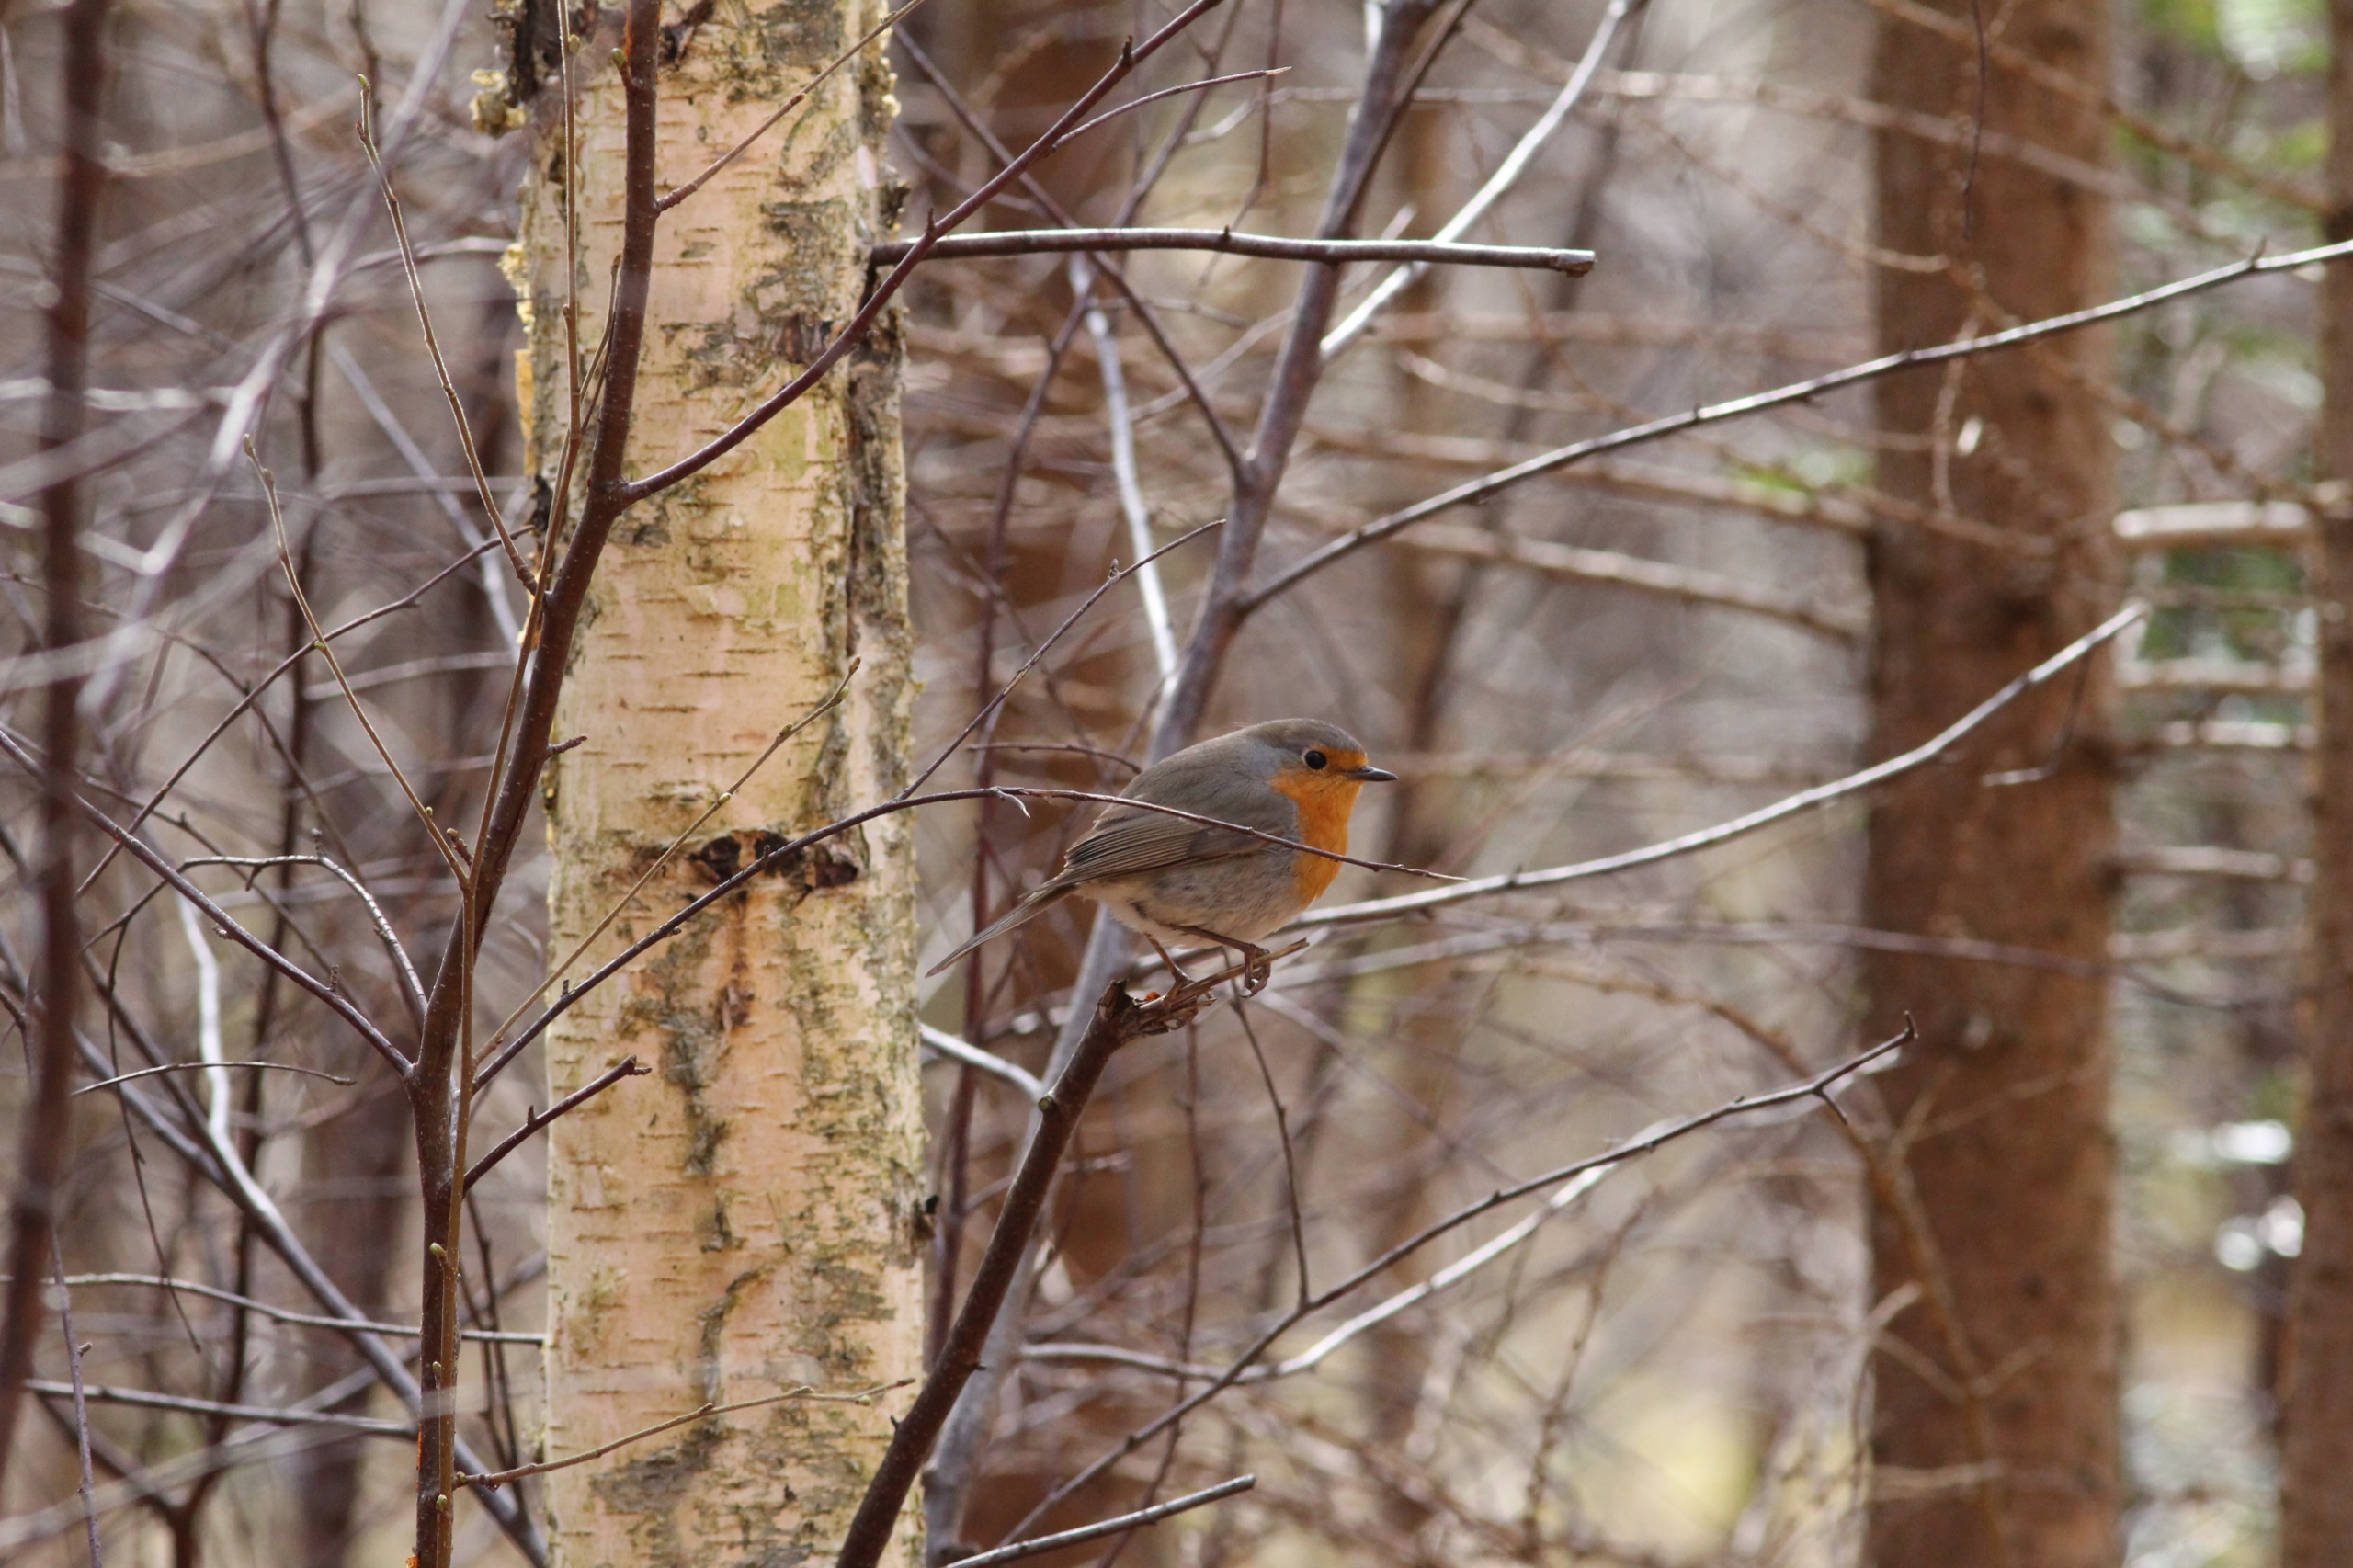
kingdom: Animalia
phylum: Chordata
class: Aves
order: Passeriformes
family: Muscicapidae
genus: Erithacus
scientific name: Erithacus rubecula
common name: Rødhals/rødkælk
